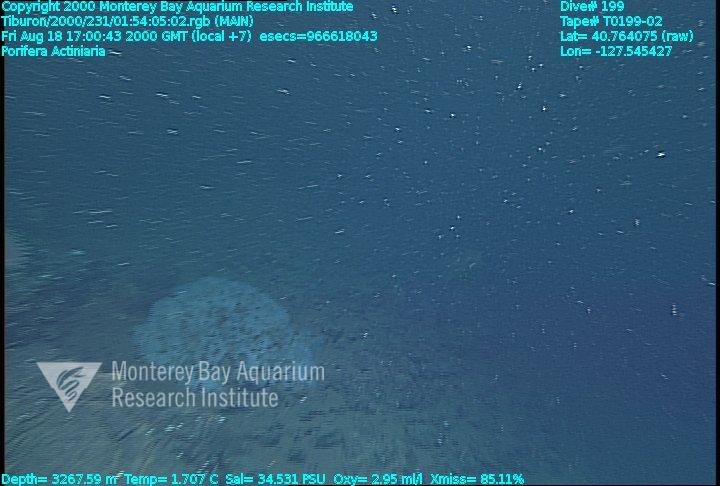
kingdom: Animalia
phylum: Porifera
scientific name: Porifera
